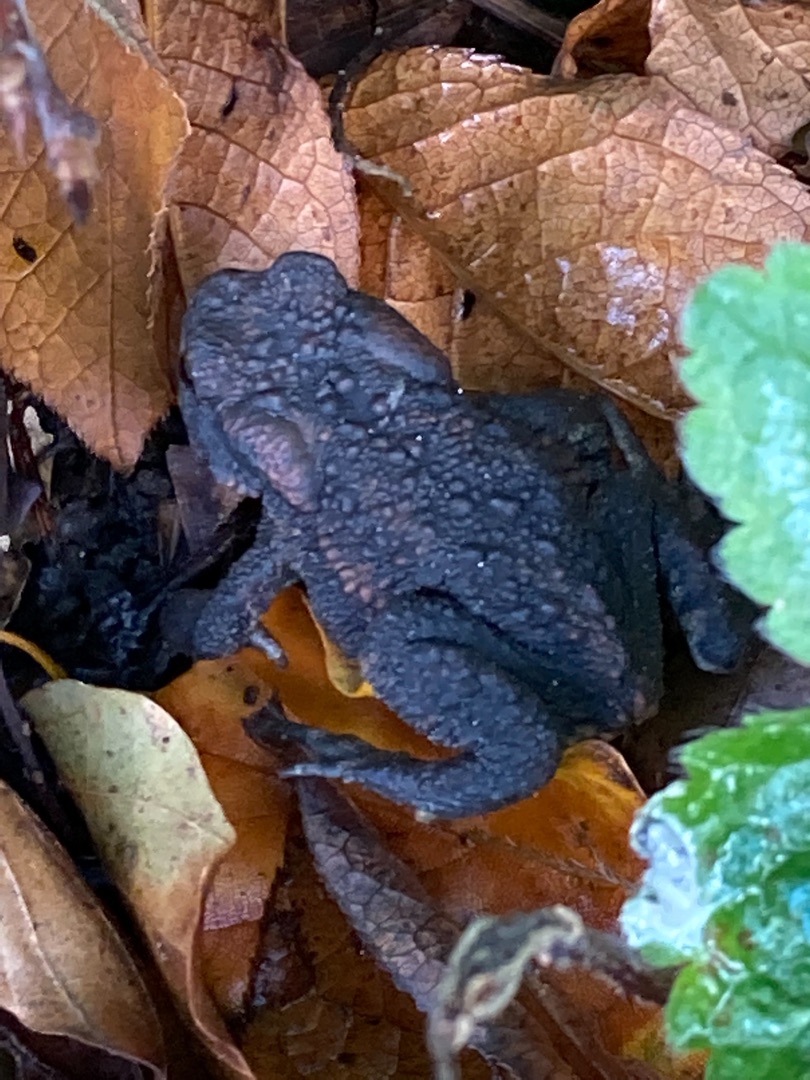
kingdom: Animalia
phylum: Chordata
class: Amphibia
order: Anura
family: Bufonidae
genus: Bufo
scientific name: Bufo bufo
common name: Skrubtudse
